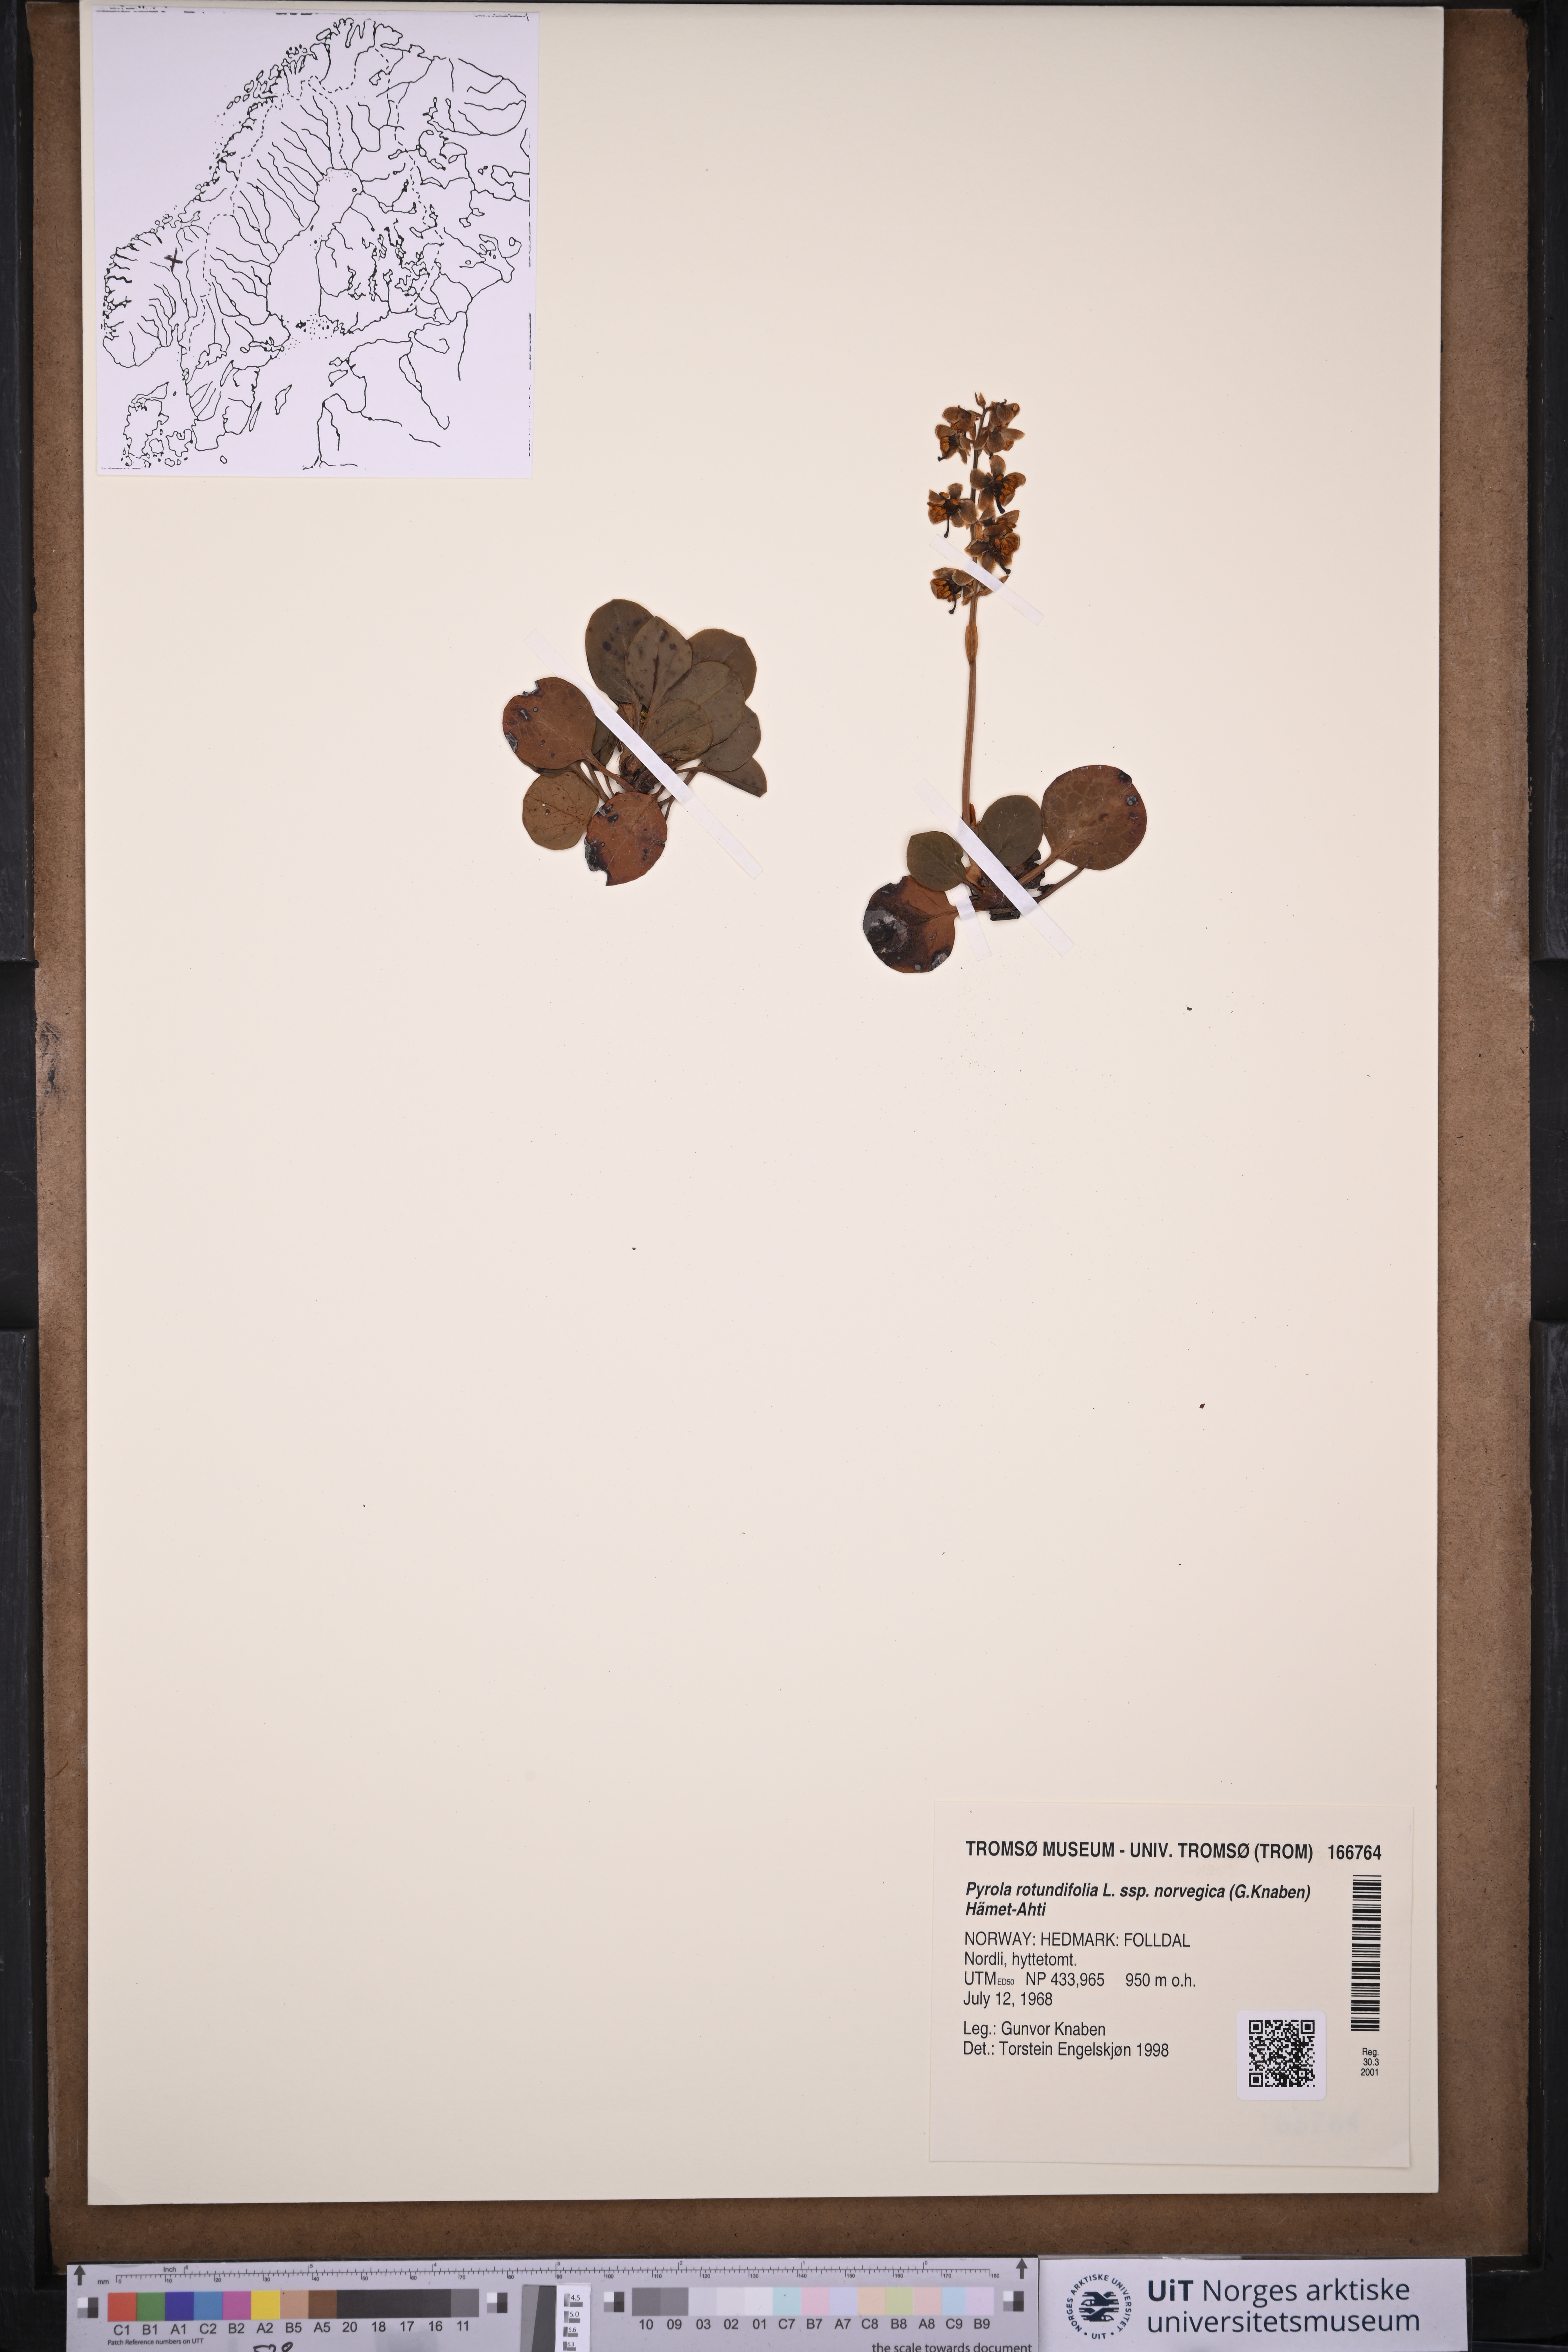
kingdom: Plantae
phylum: Tracheophyta
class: Magnoliopsida
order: Ericales
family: Ericaceae
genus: Pyrola
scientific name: Pyrola rotundifolia
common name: Round-leaved wintergreen
